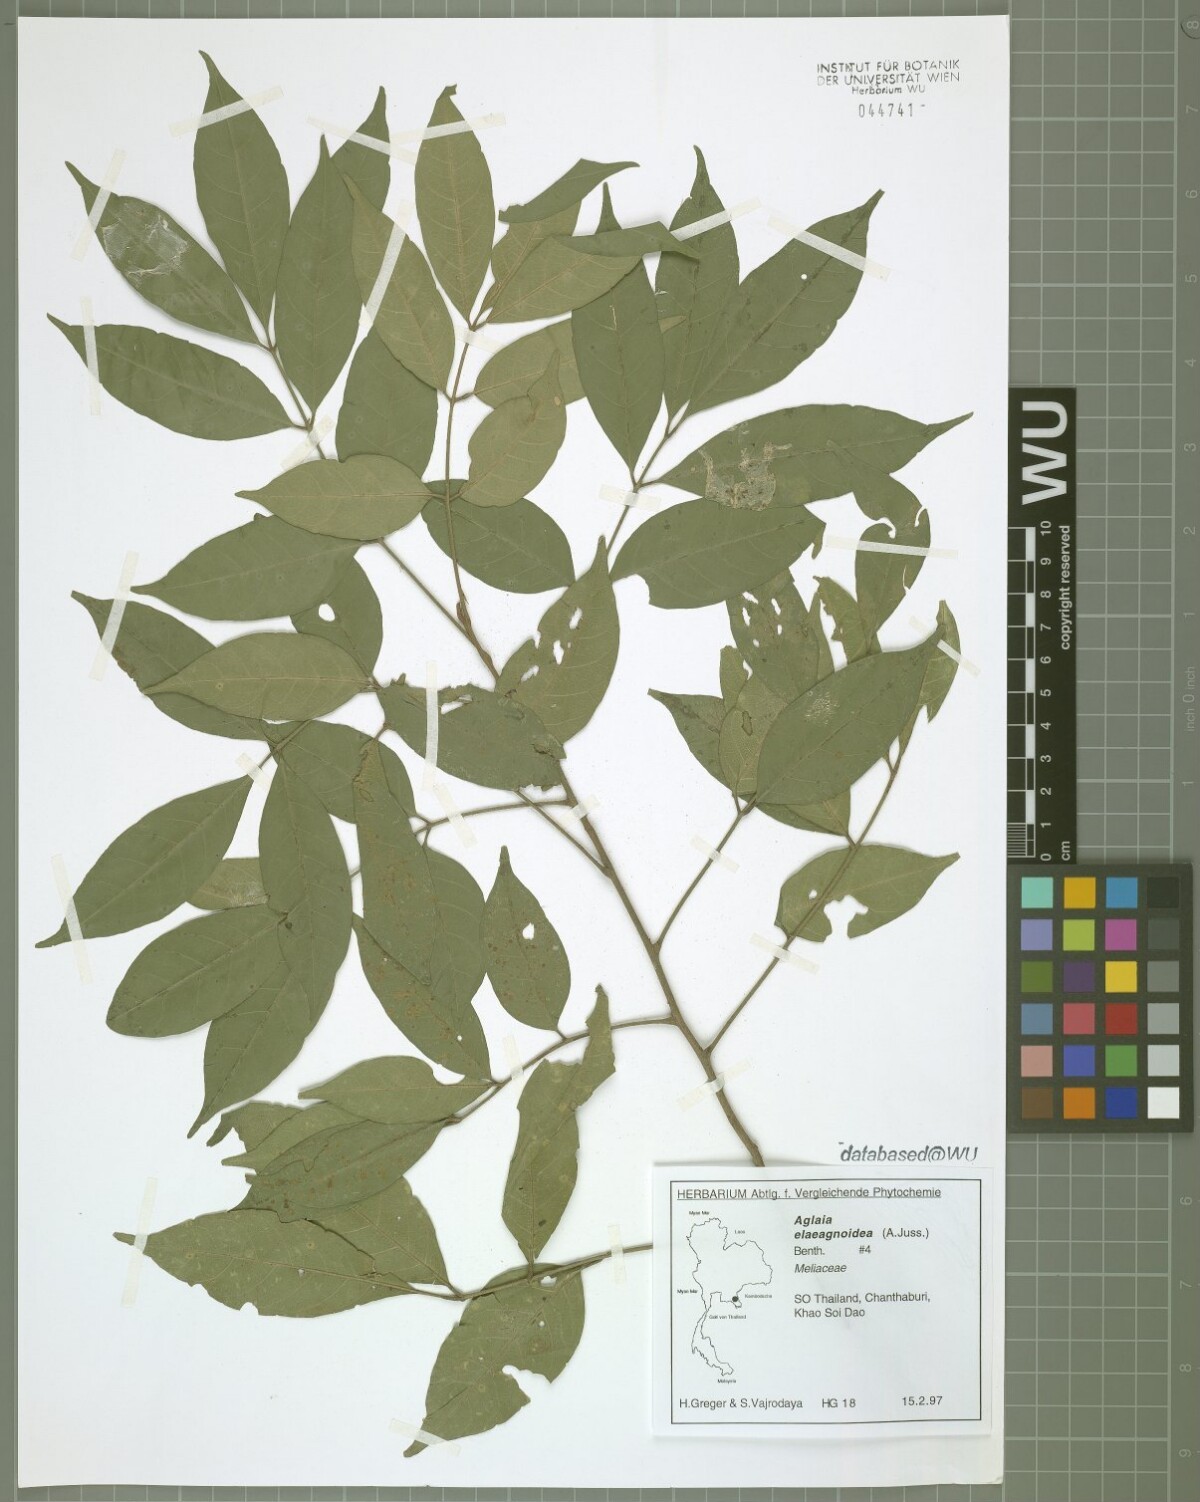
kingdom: Plantae
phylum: Tracheophyta
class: Magnoliopsida
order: Sapindales
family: Meliaceae
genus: Aglaia
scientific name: Aglaia elaeagnoidea
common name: Droopyleaf
